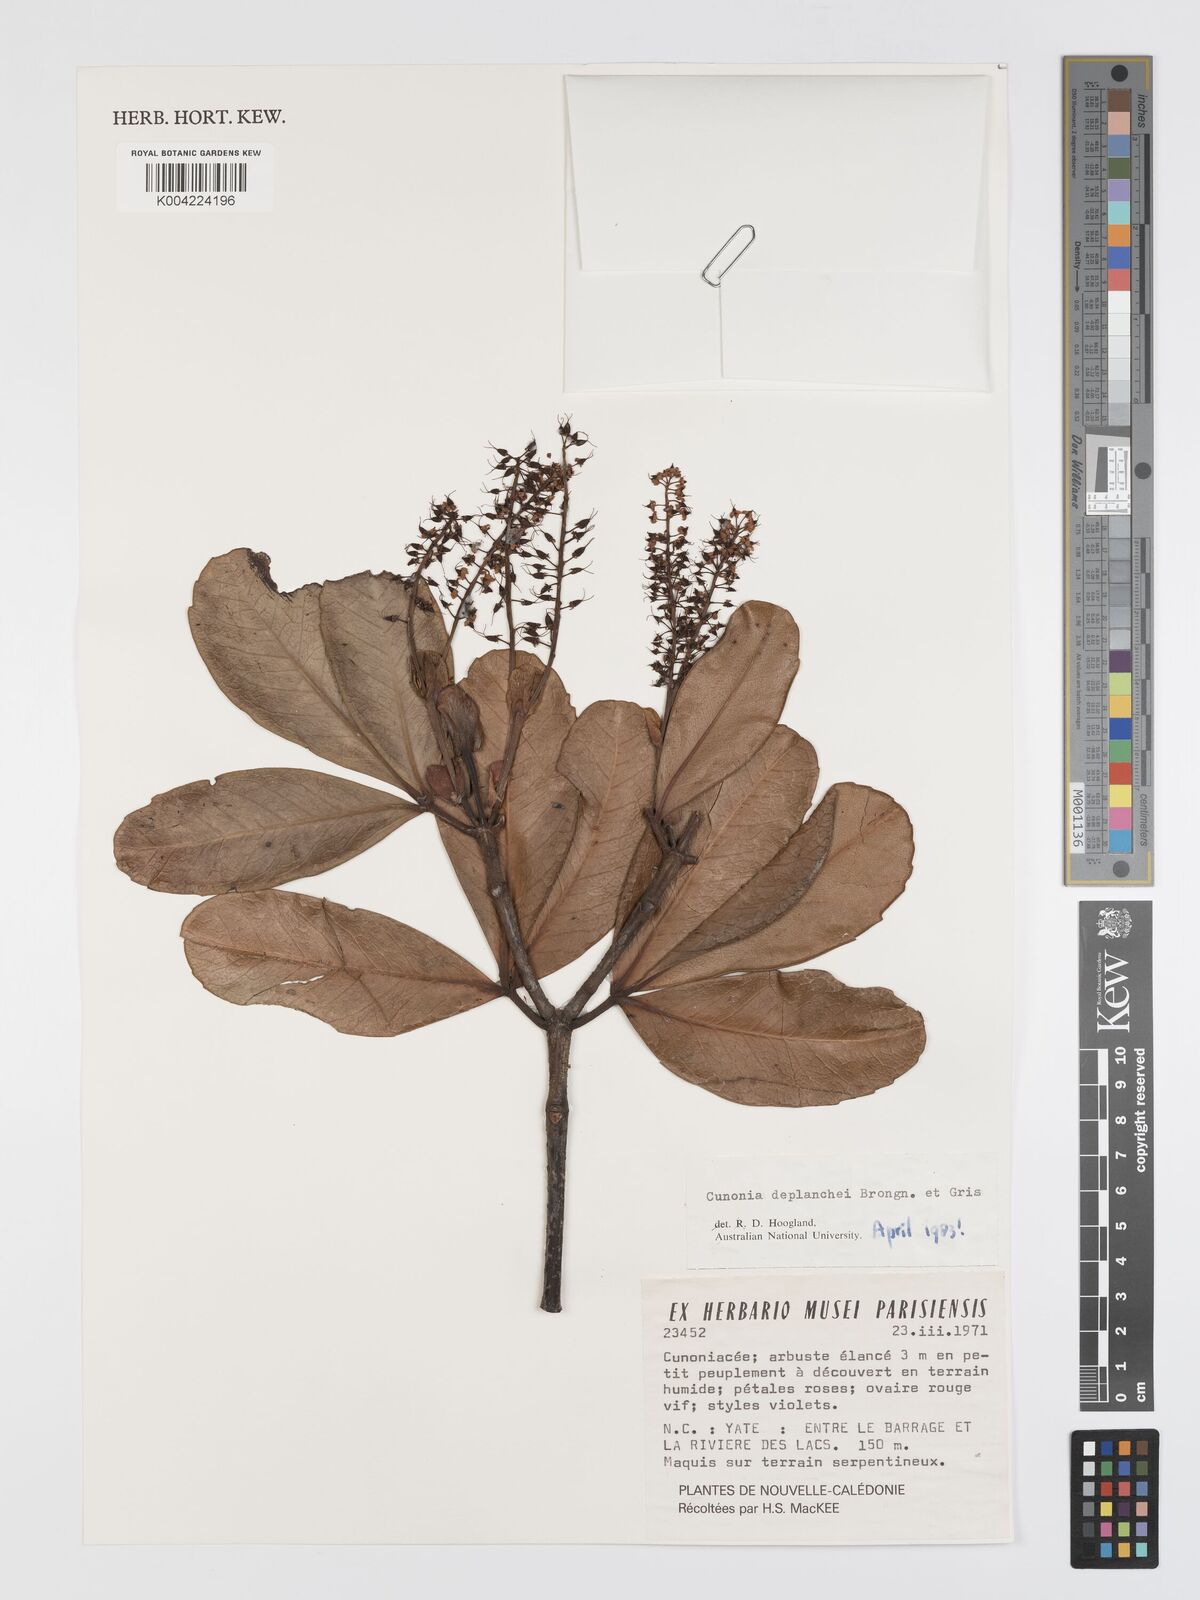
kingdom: Plantae
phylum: Tracheophyta
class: Magnoliopsida
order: Oxalidales
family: Cunoniaceae
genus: Cunonia
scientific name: Cunonia deplanchei
